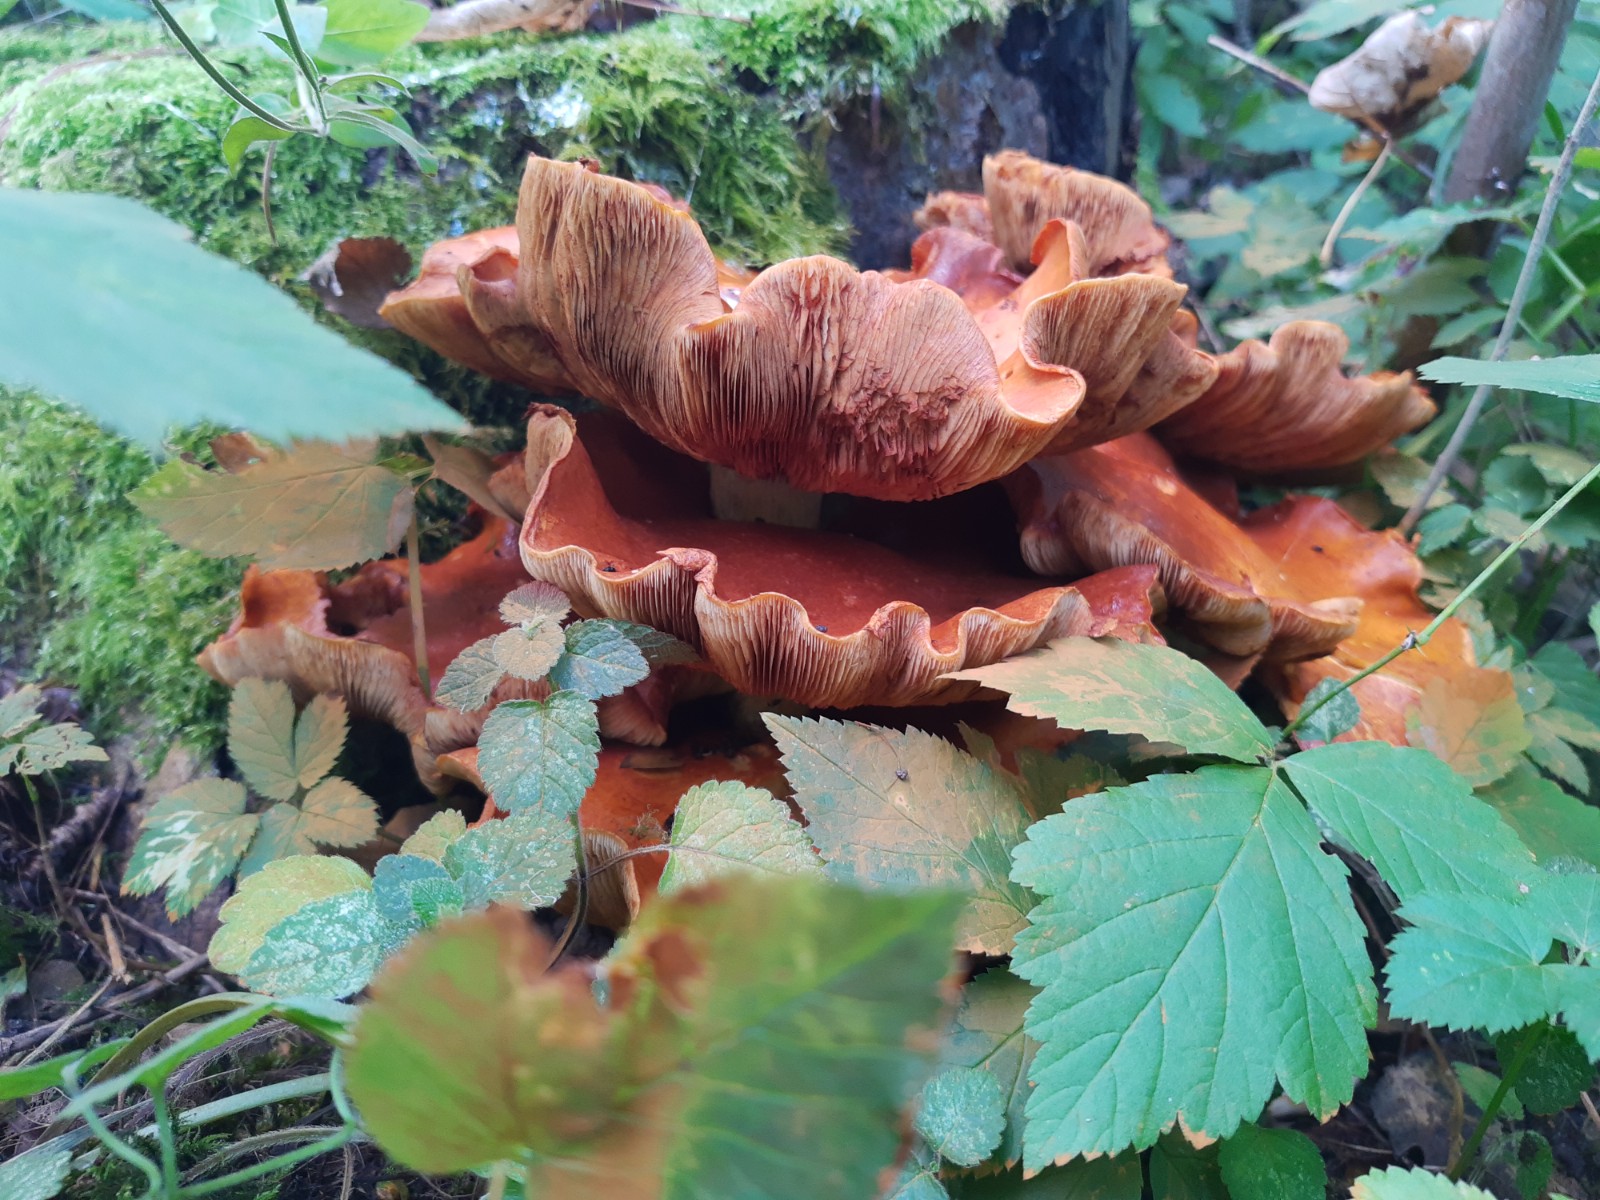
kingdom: Fungi
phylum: Basidiomycota
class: Agaricomycetes
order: Agaricales
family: Hymenogastraceae
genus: Gymnopilus
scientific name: Gymnopilus spectabilis
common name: fibret flammehat
